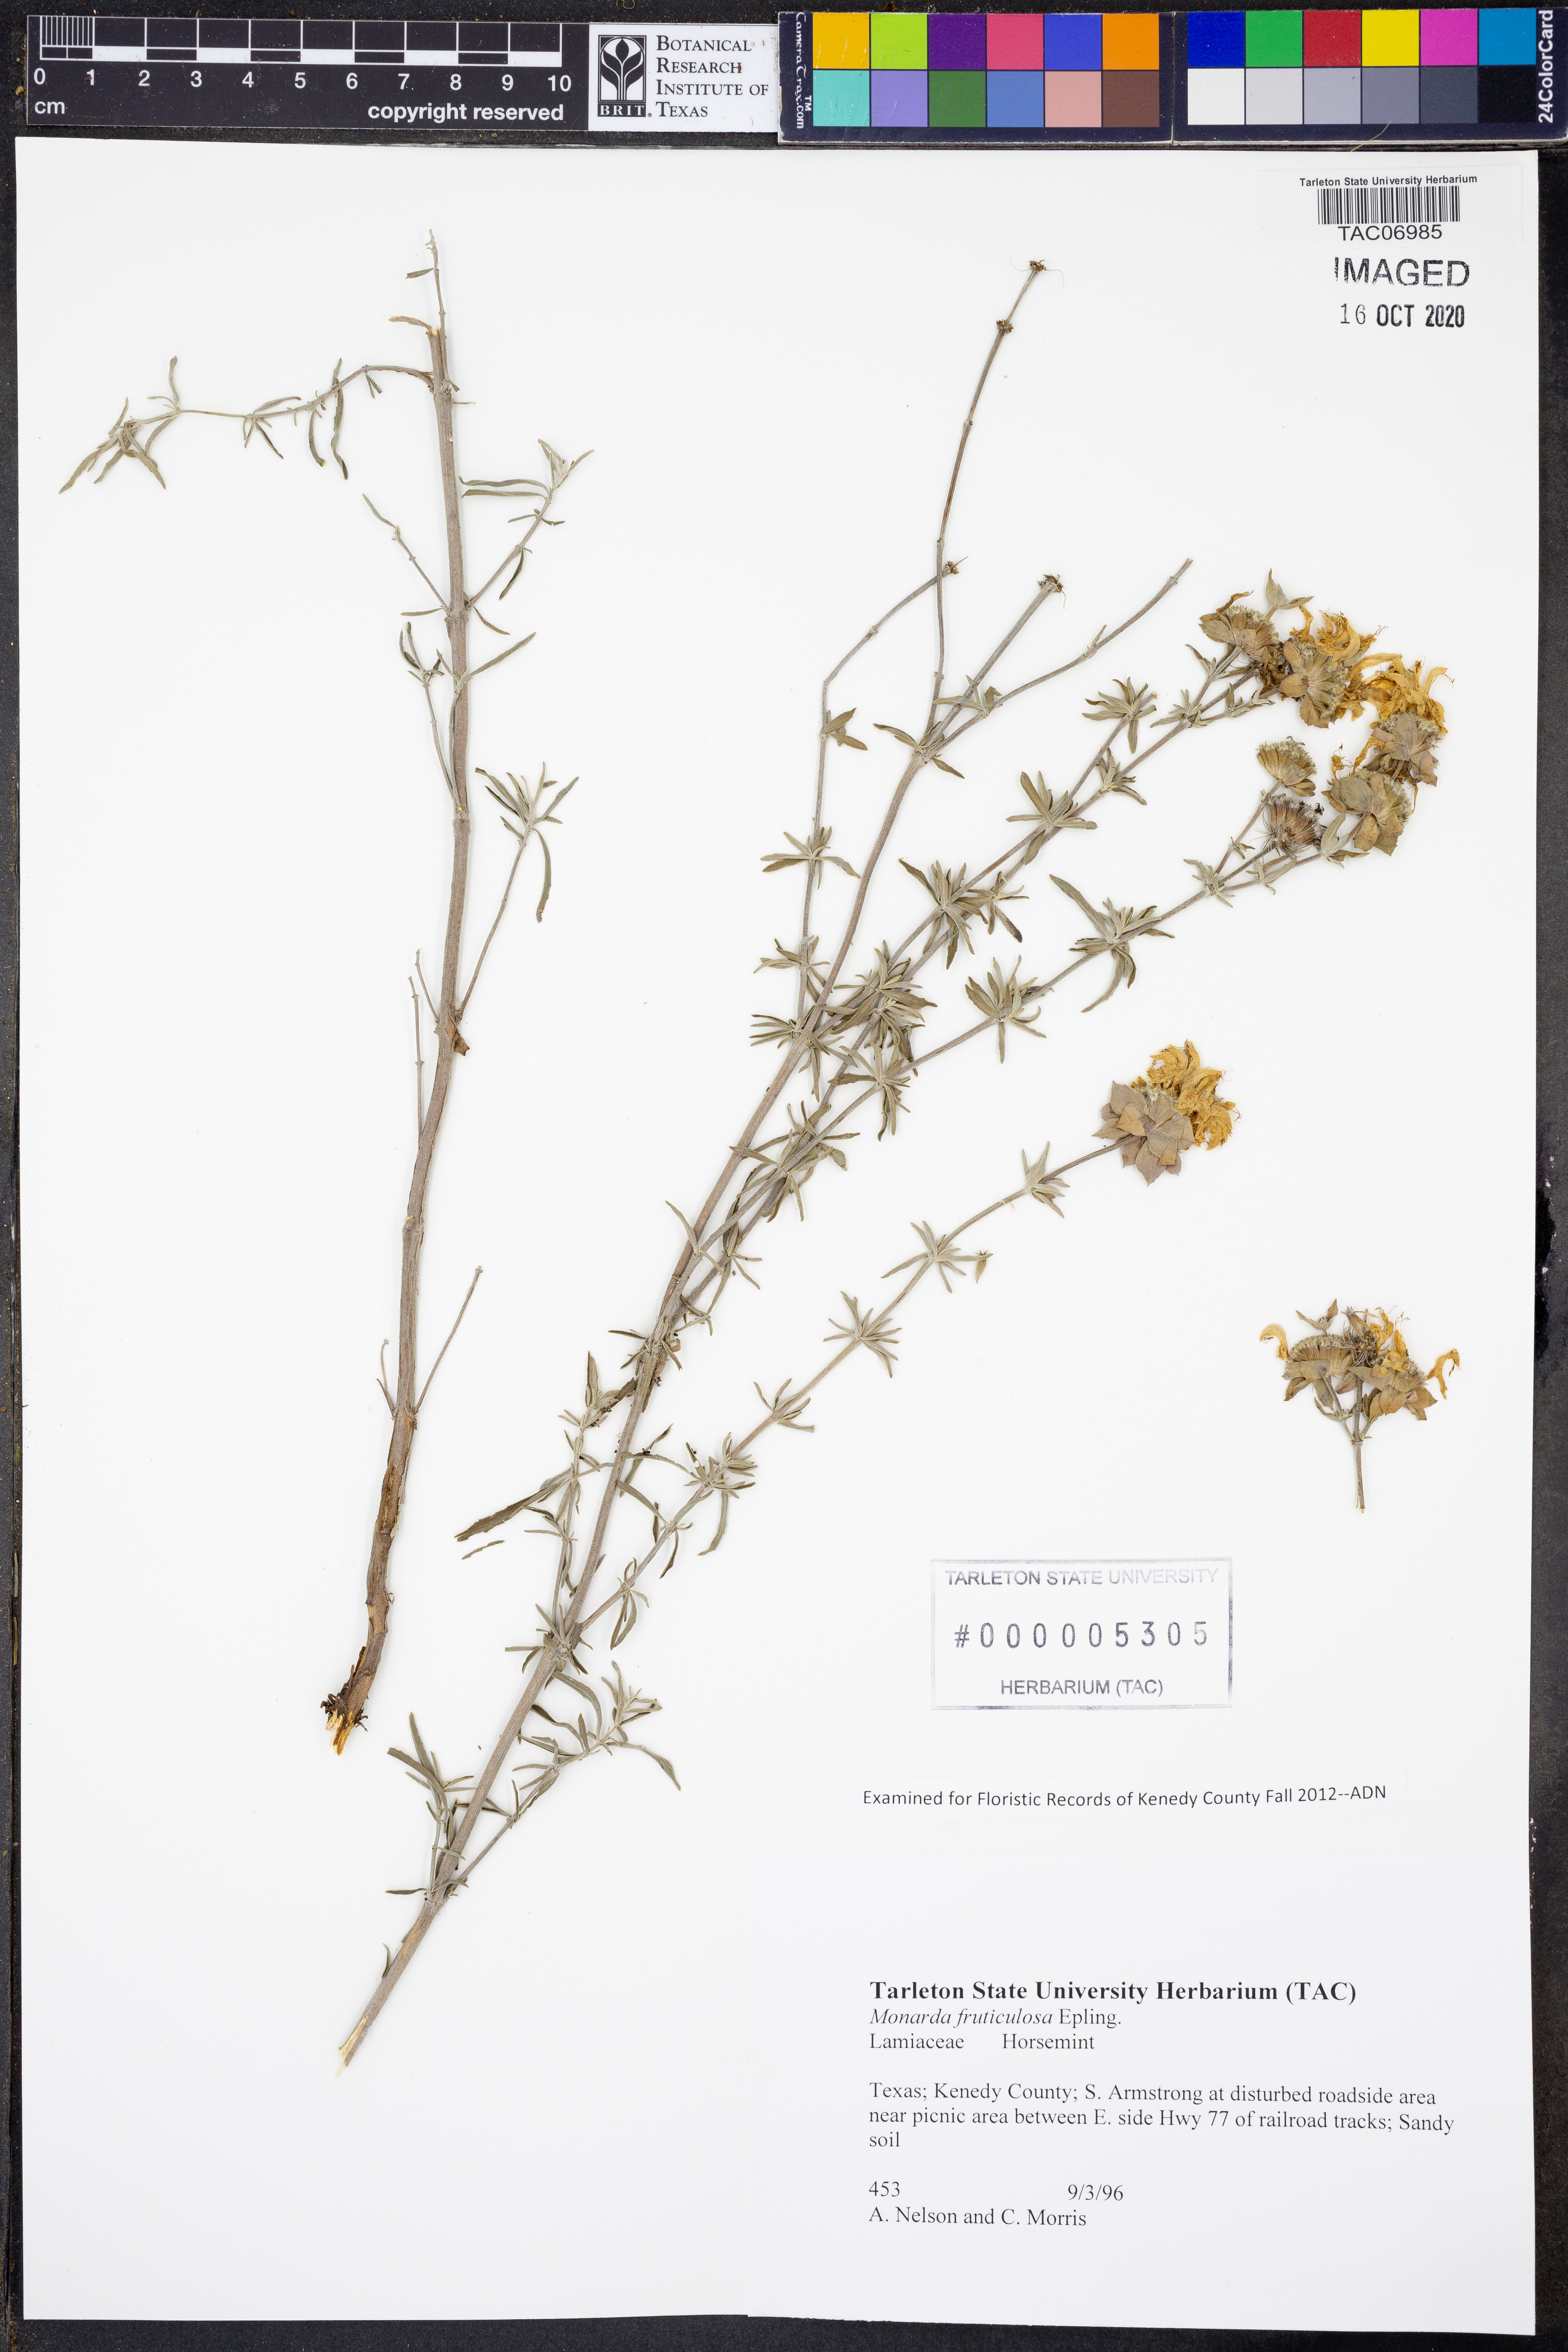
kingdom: Plantae
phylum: Tracheophyta
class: Magnoliopsida
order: Lamiales
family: Lamiaceae
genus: Monarda
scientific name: Monarda fruticulosa
